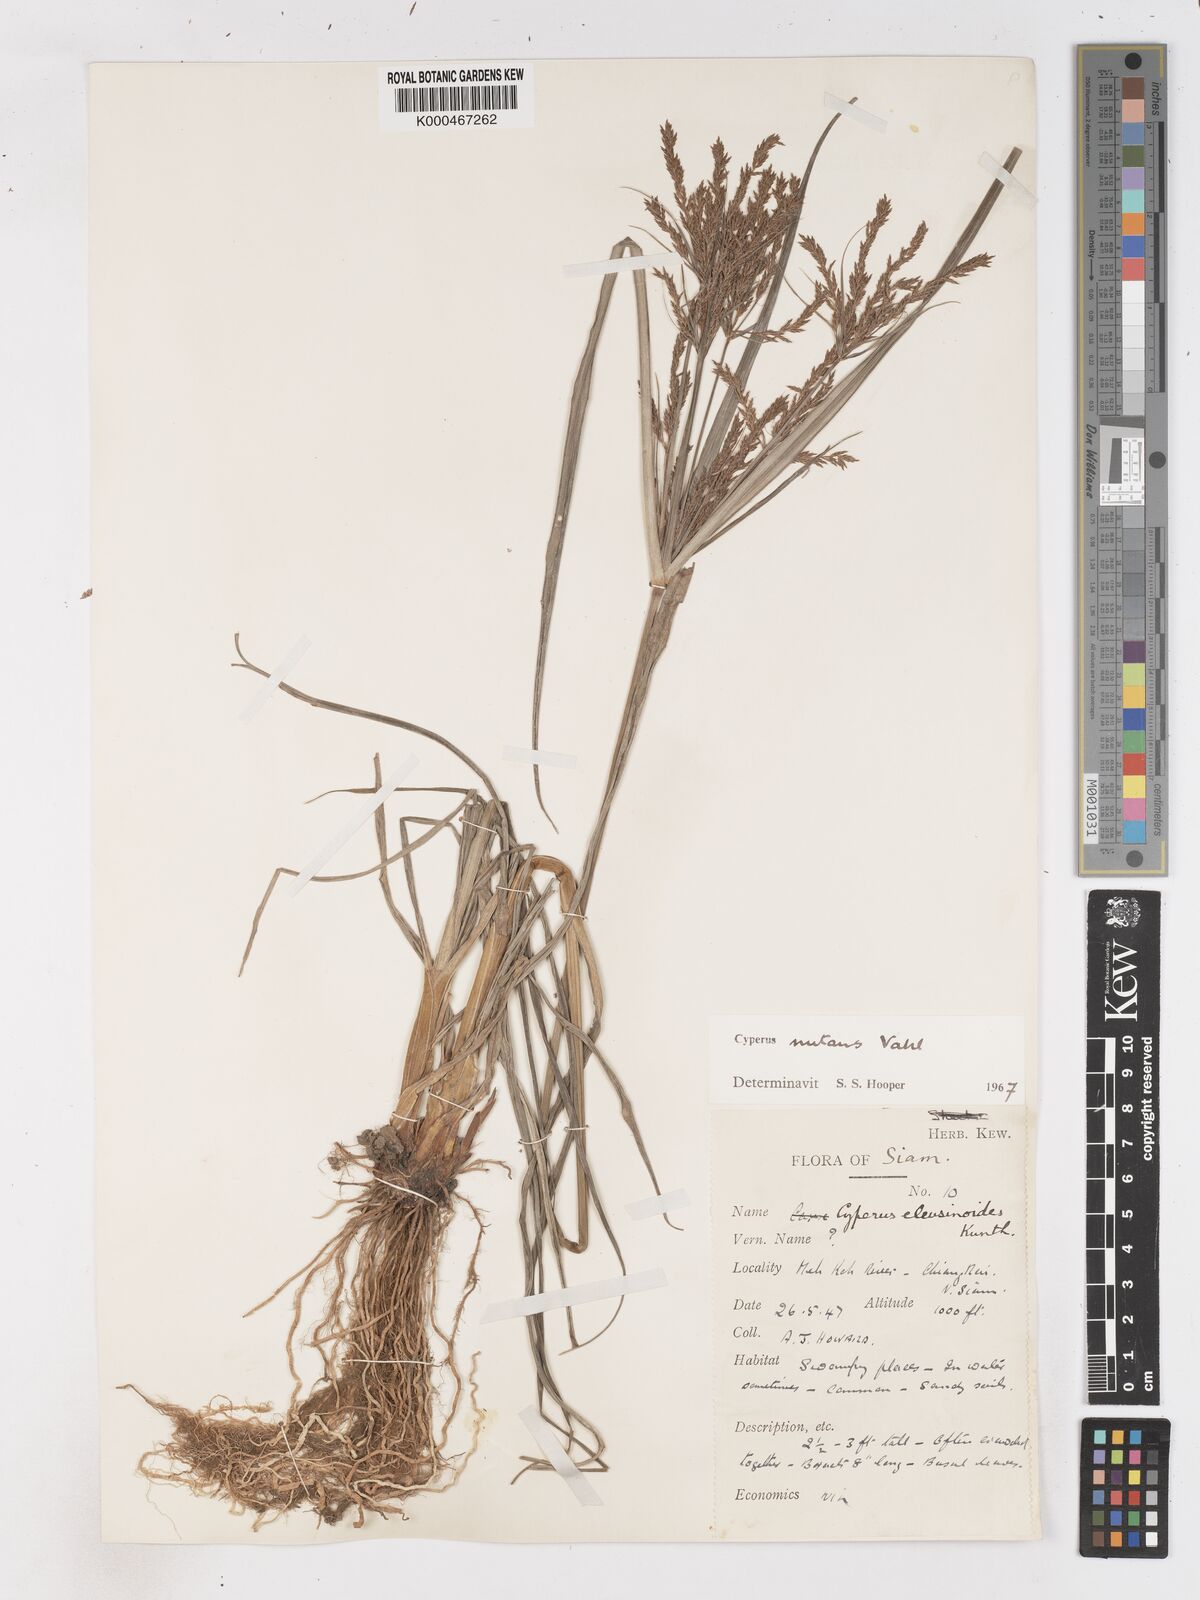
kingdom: Plantae
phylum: Tracheophyta
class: Liliopsida
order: Poales
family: Cyperaceae
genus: Cyperus
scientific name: Cyperus nutans
